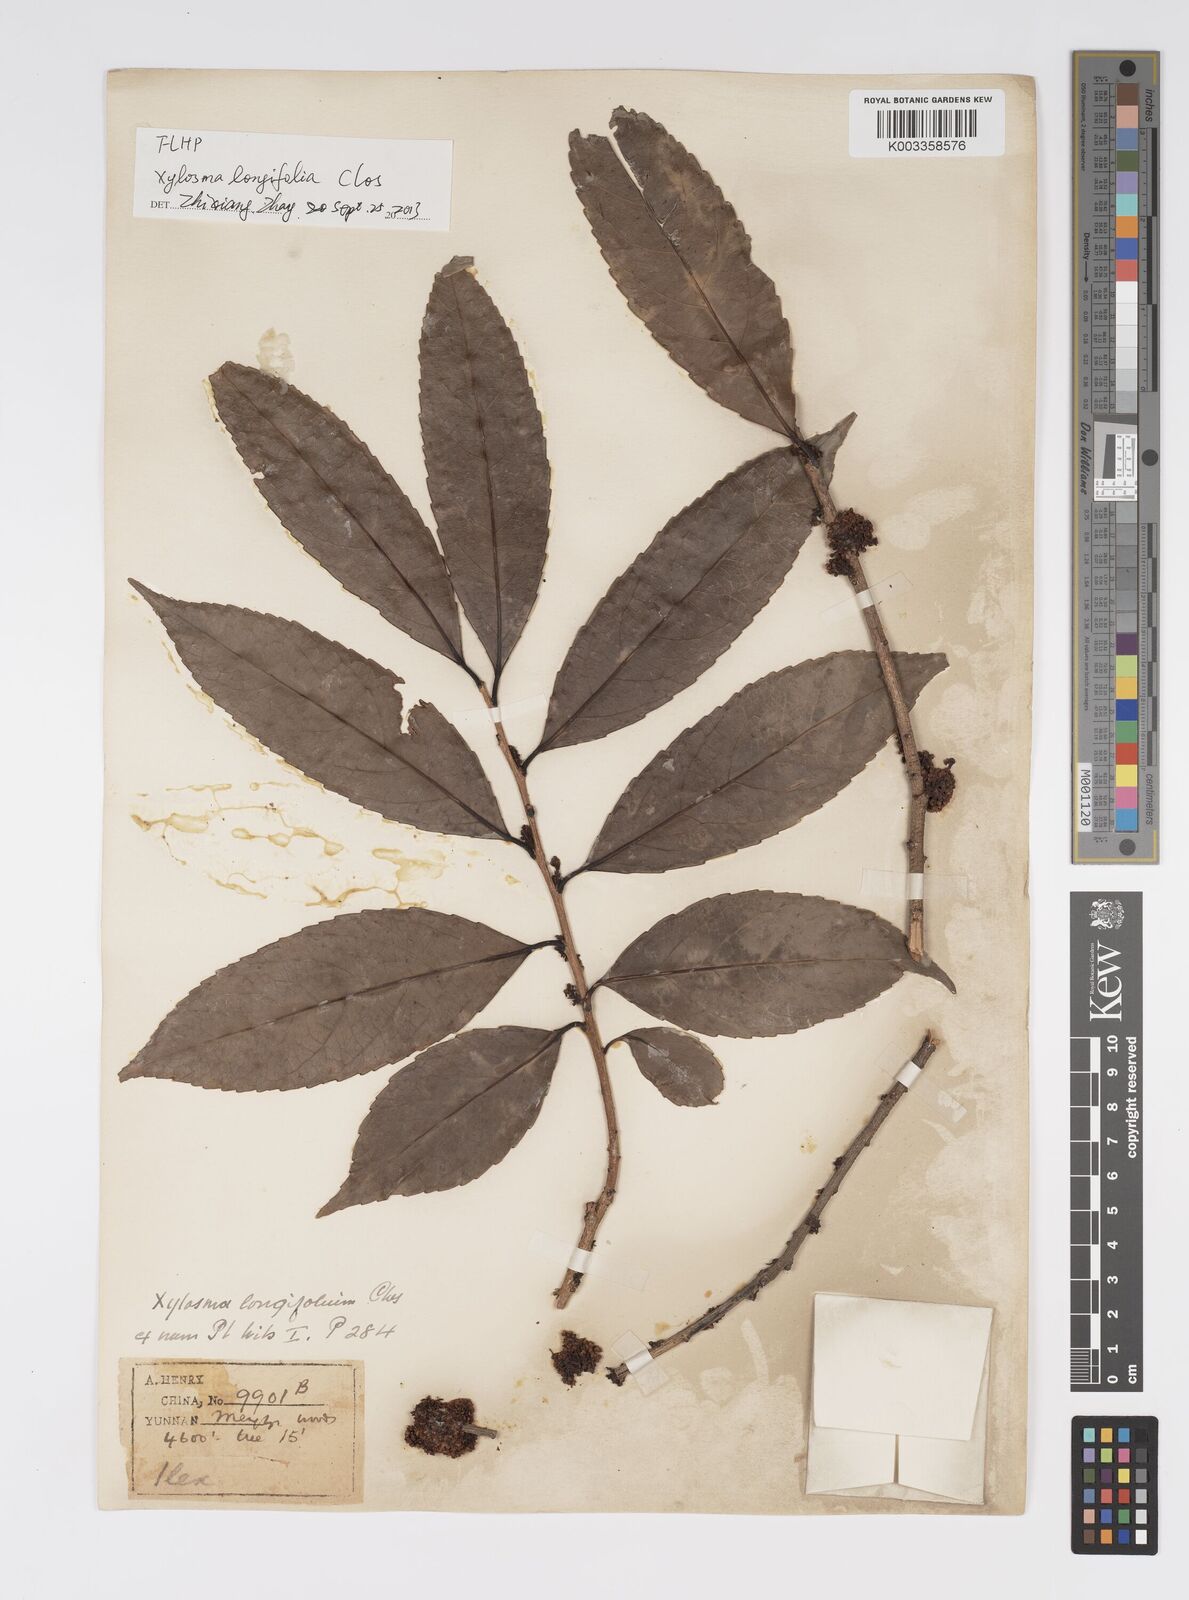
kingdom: Plantae
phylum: Tracheophyta
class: Magnoliopsida
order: Malpighiales
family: Salicaceae
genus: Xylosma
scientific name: Xylosma longifolia
